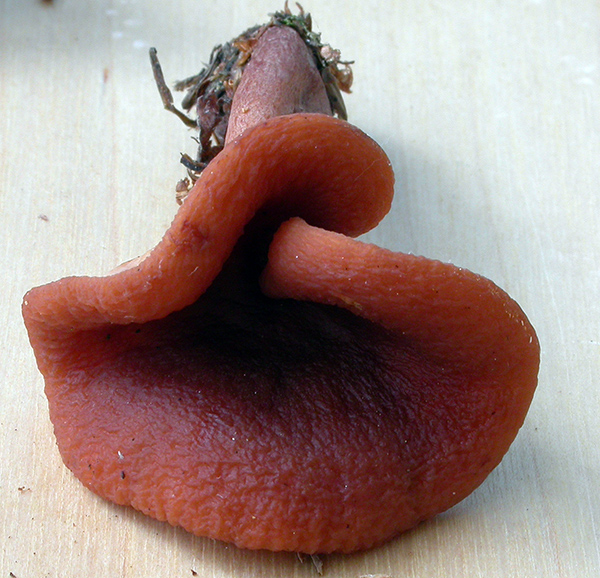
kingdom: Fungi
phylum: Basidiomycota
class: Agaricomycetes
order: Russulales
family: Russulaceae
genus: Lactarius
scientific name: Lactarius
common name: mælkehat
